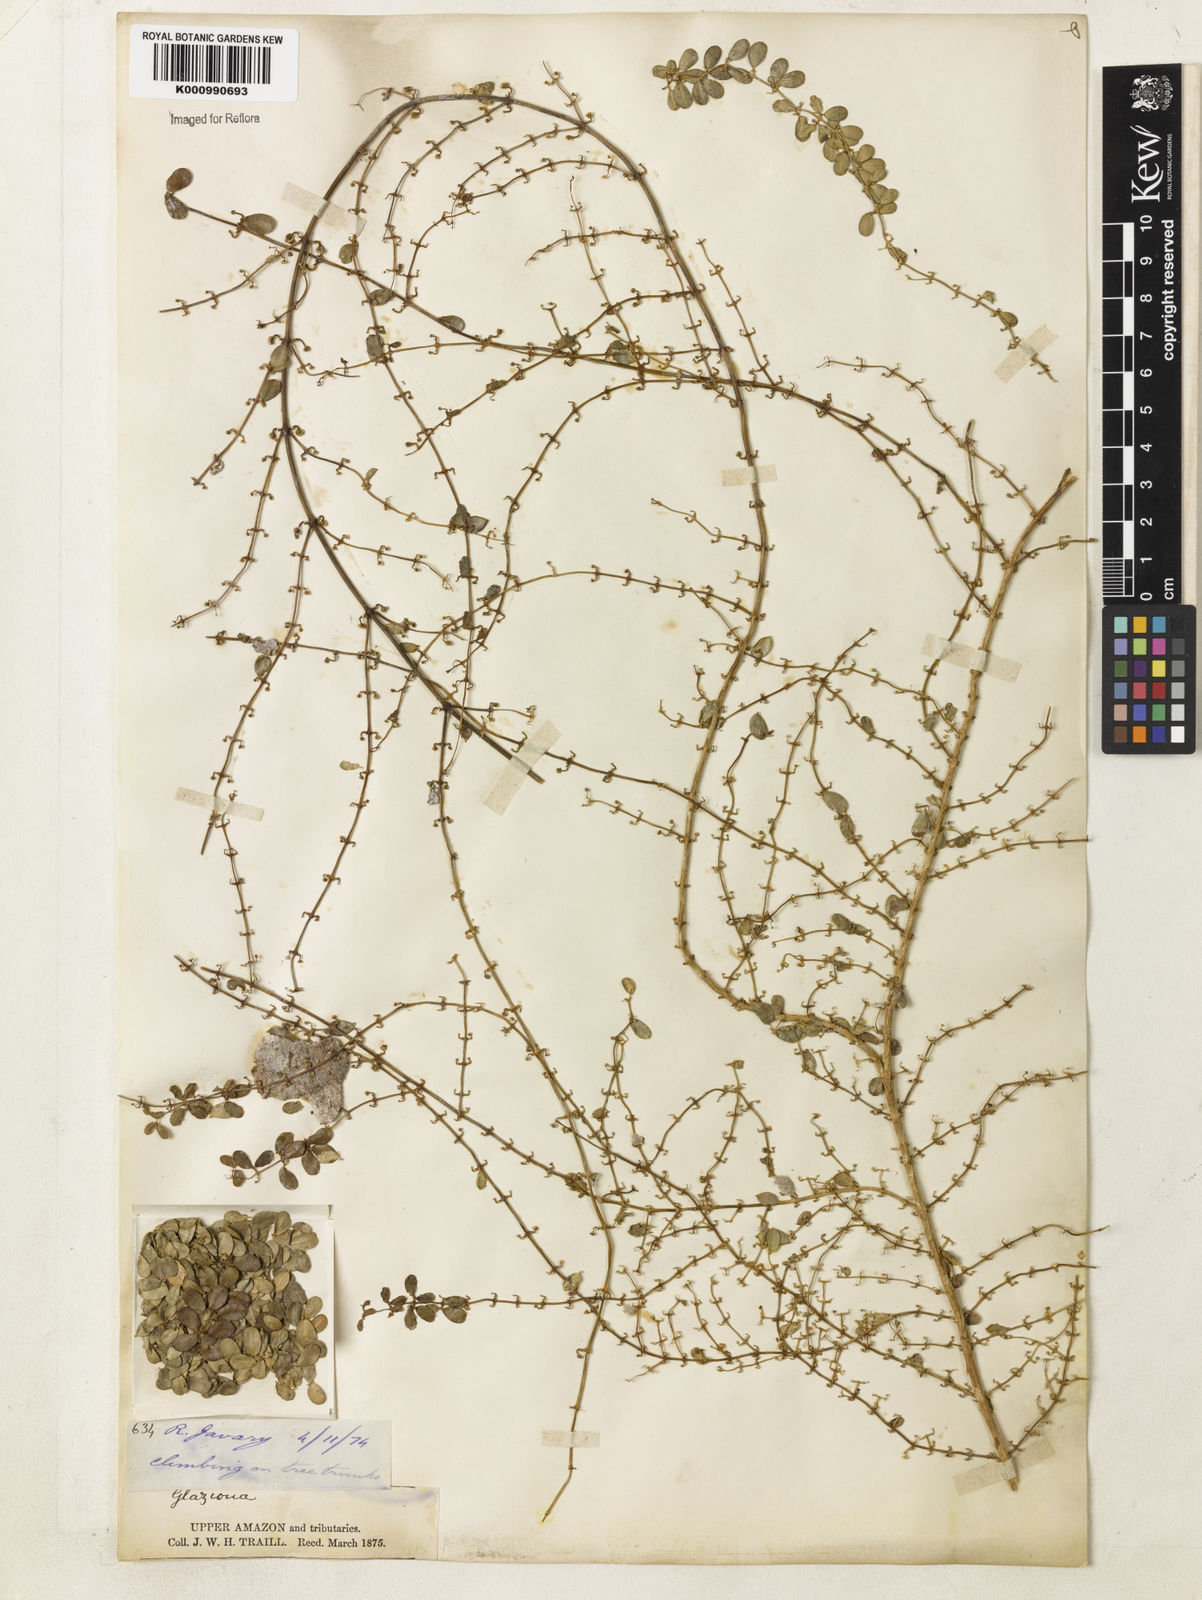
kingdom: Plantae
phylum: Tracheophyta
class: Liliopsida
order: Arecales
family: Arecaceae
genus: Glaziova
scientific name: Glaziova
